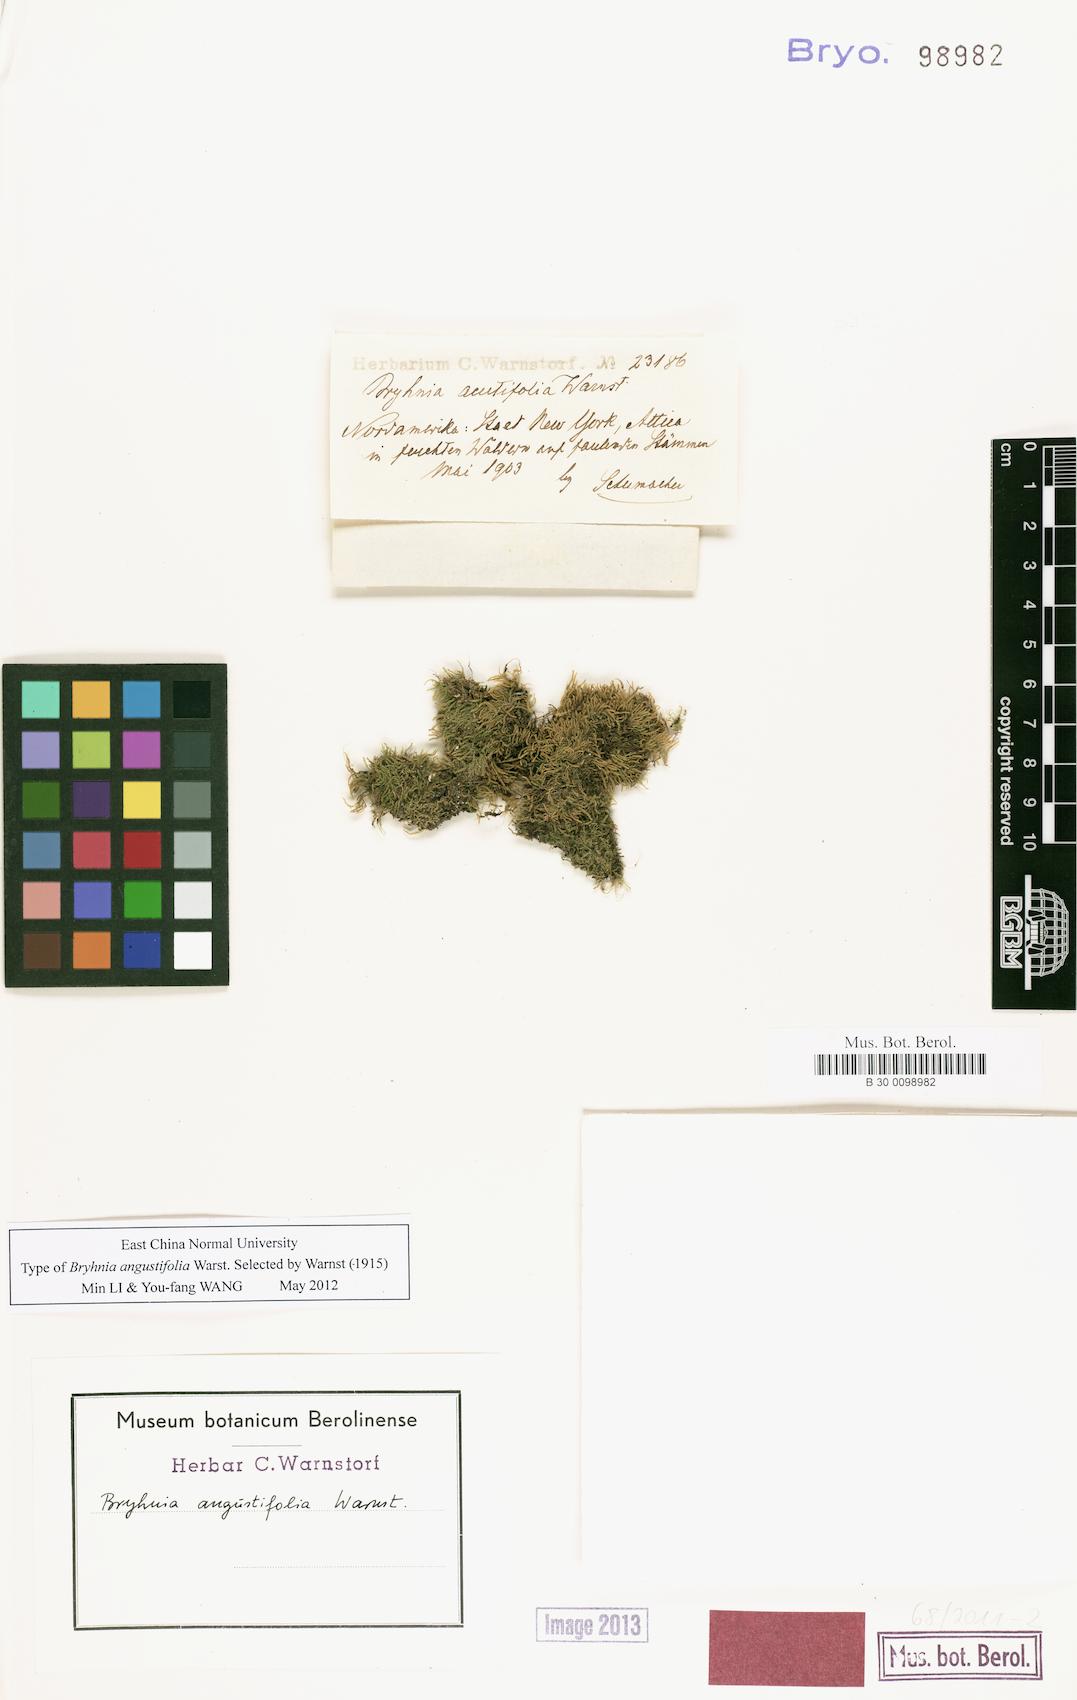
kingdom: Plantae
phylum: Bryophyta
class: Bryopsida
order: Hypnales
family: Brachytheciaceae
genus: Koponeniella
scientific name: Koponeniella graminicolor
